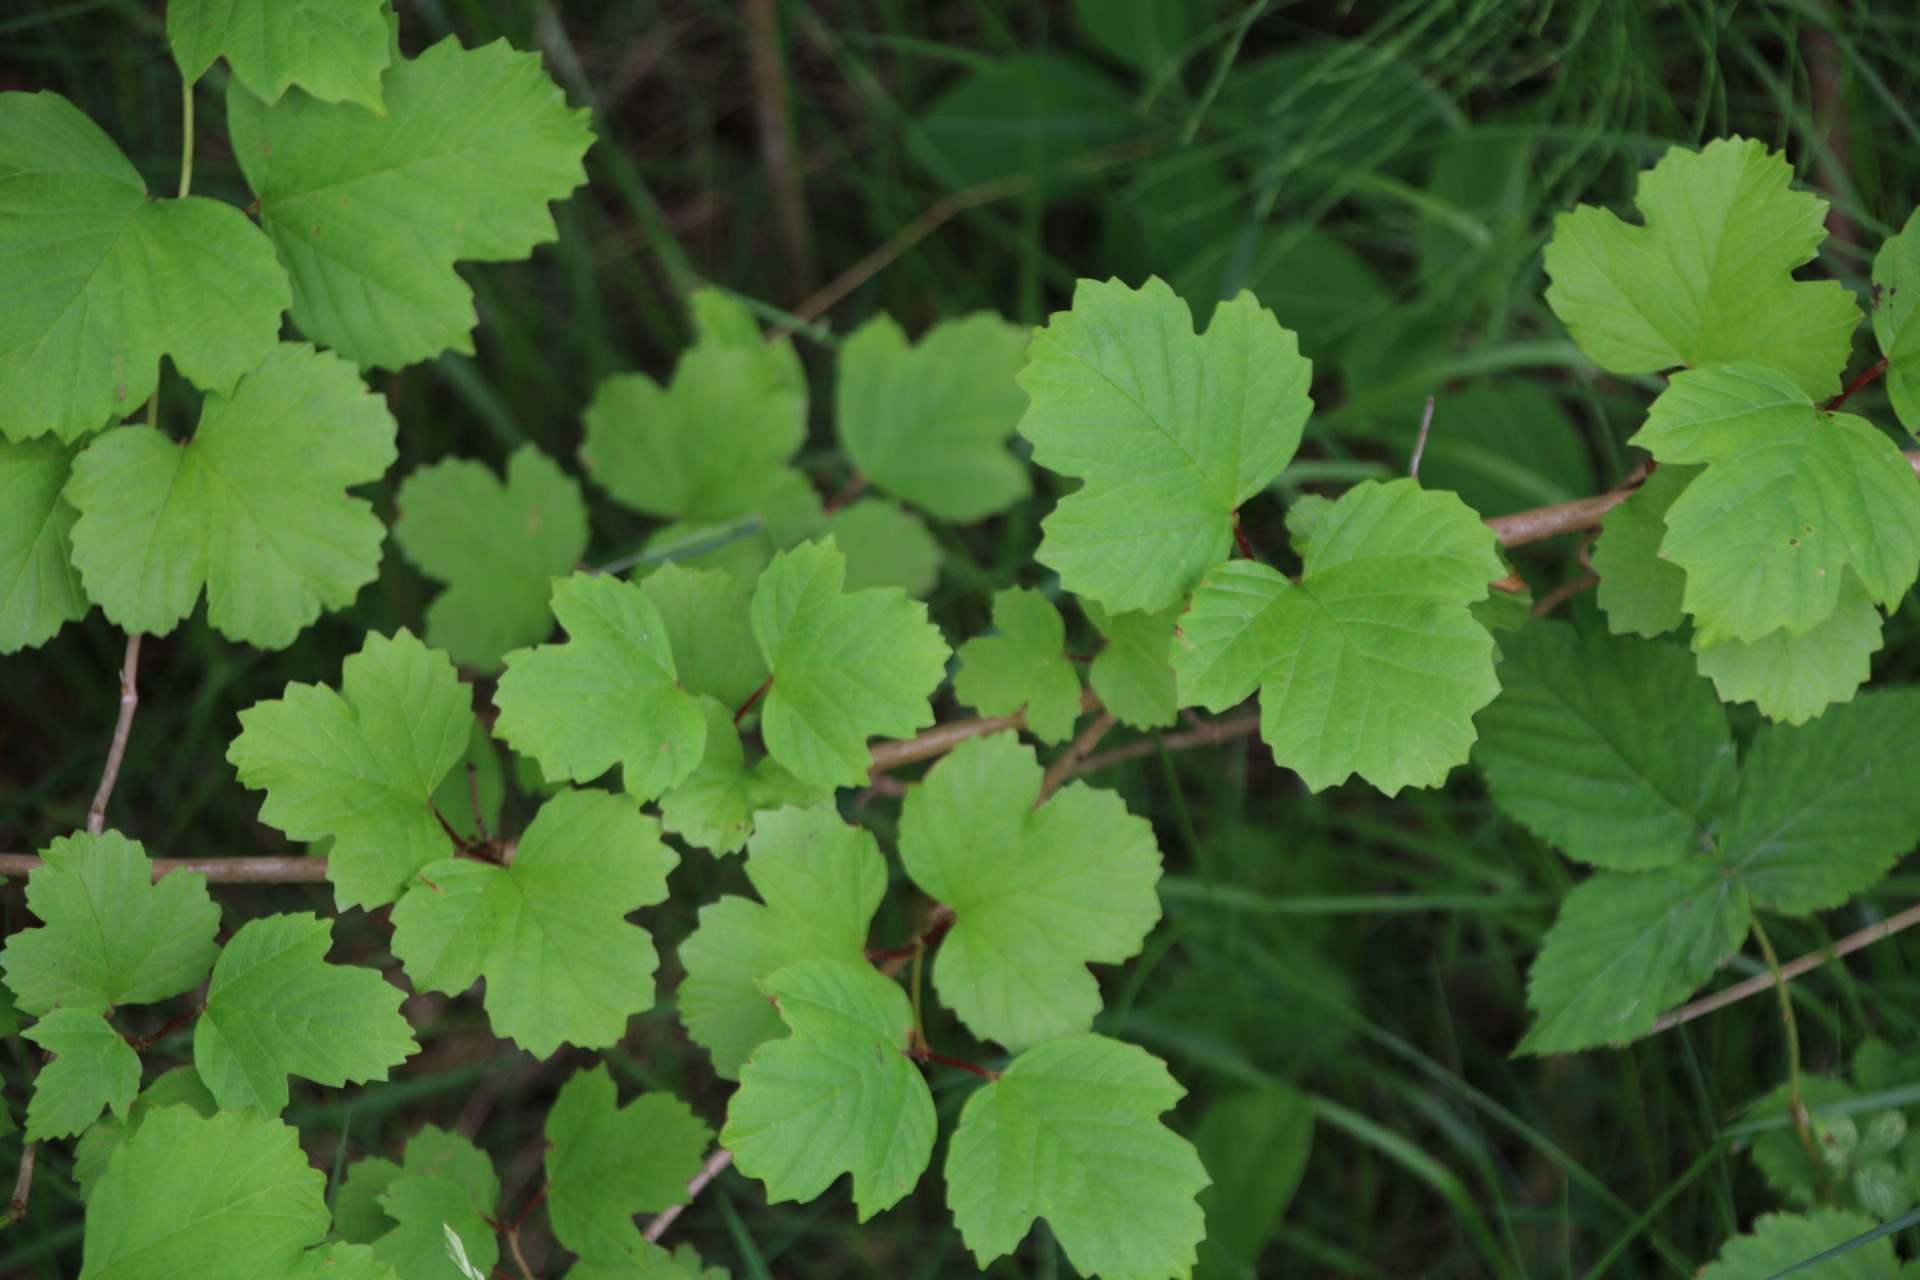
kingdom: Plantae
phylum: Tracheophyta
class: Magnoliopsida
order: Dipsacales
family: Viburnaceae
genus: Viburnum
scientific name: Viburnum opulus
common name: Kvalkved
